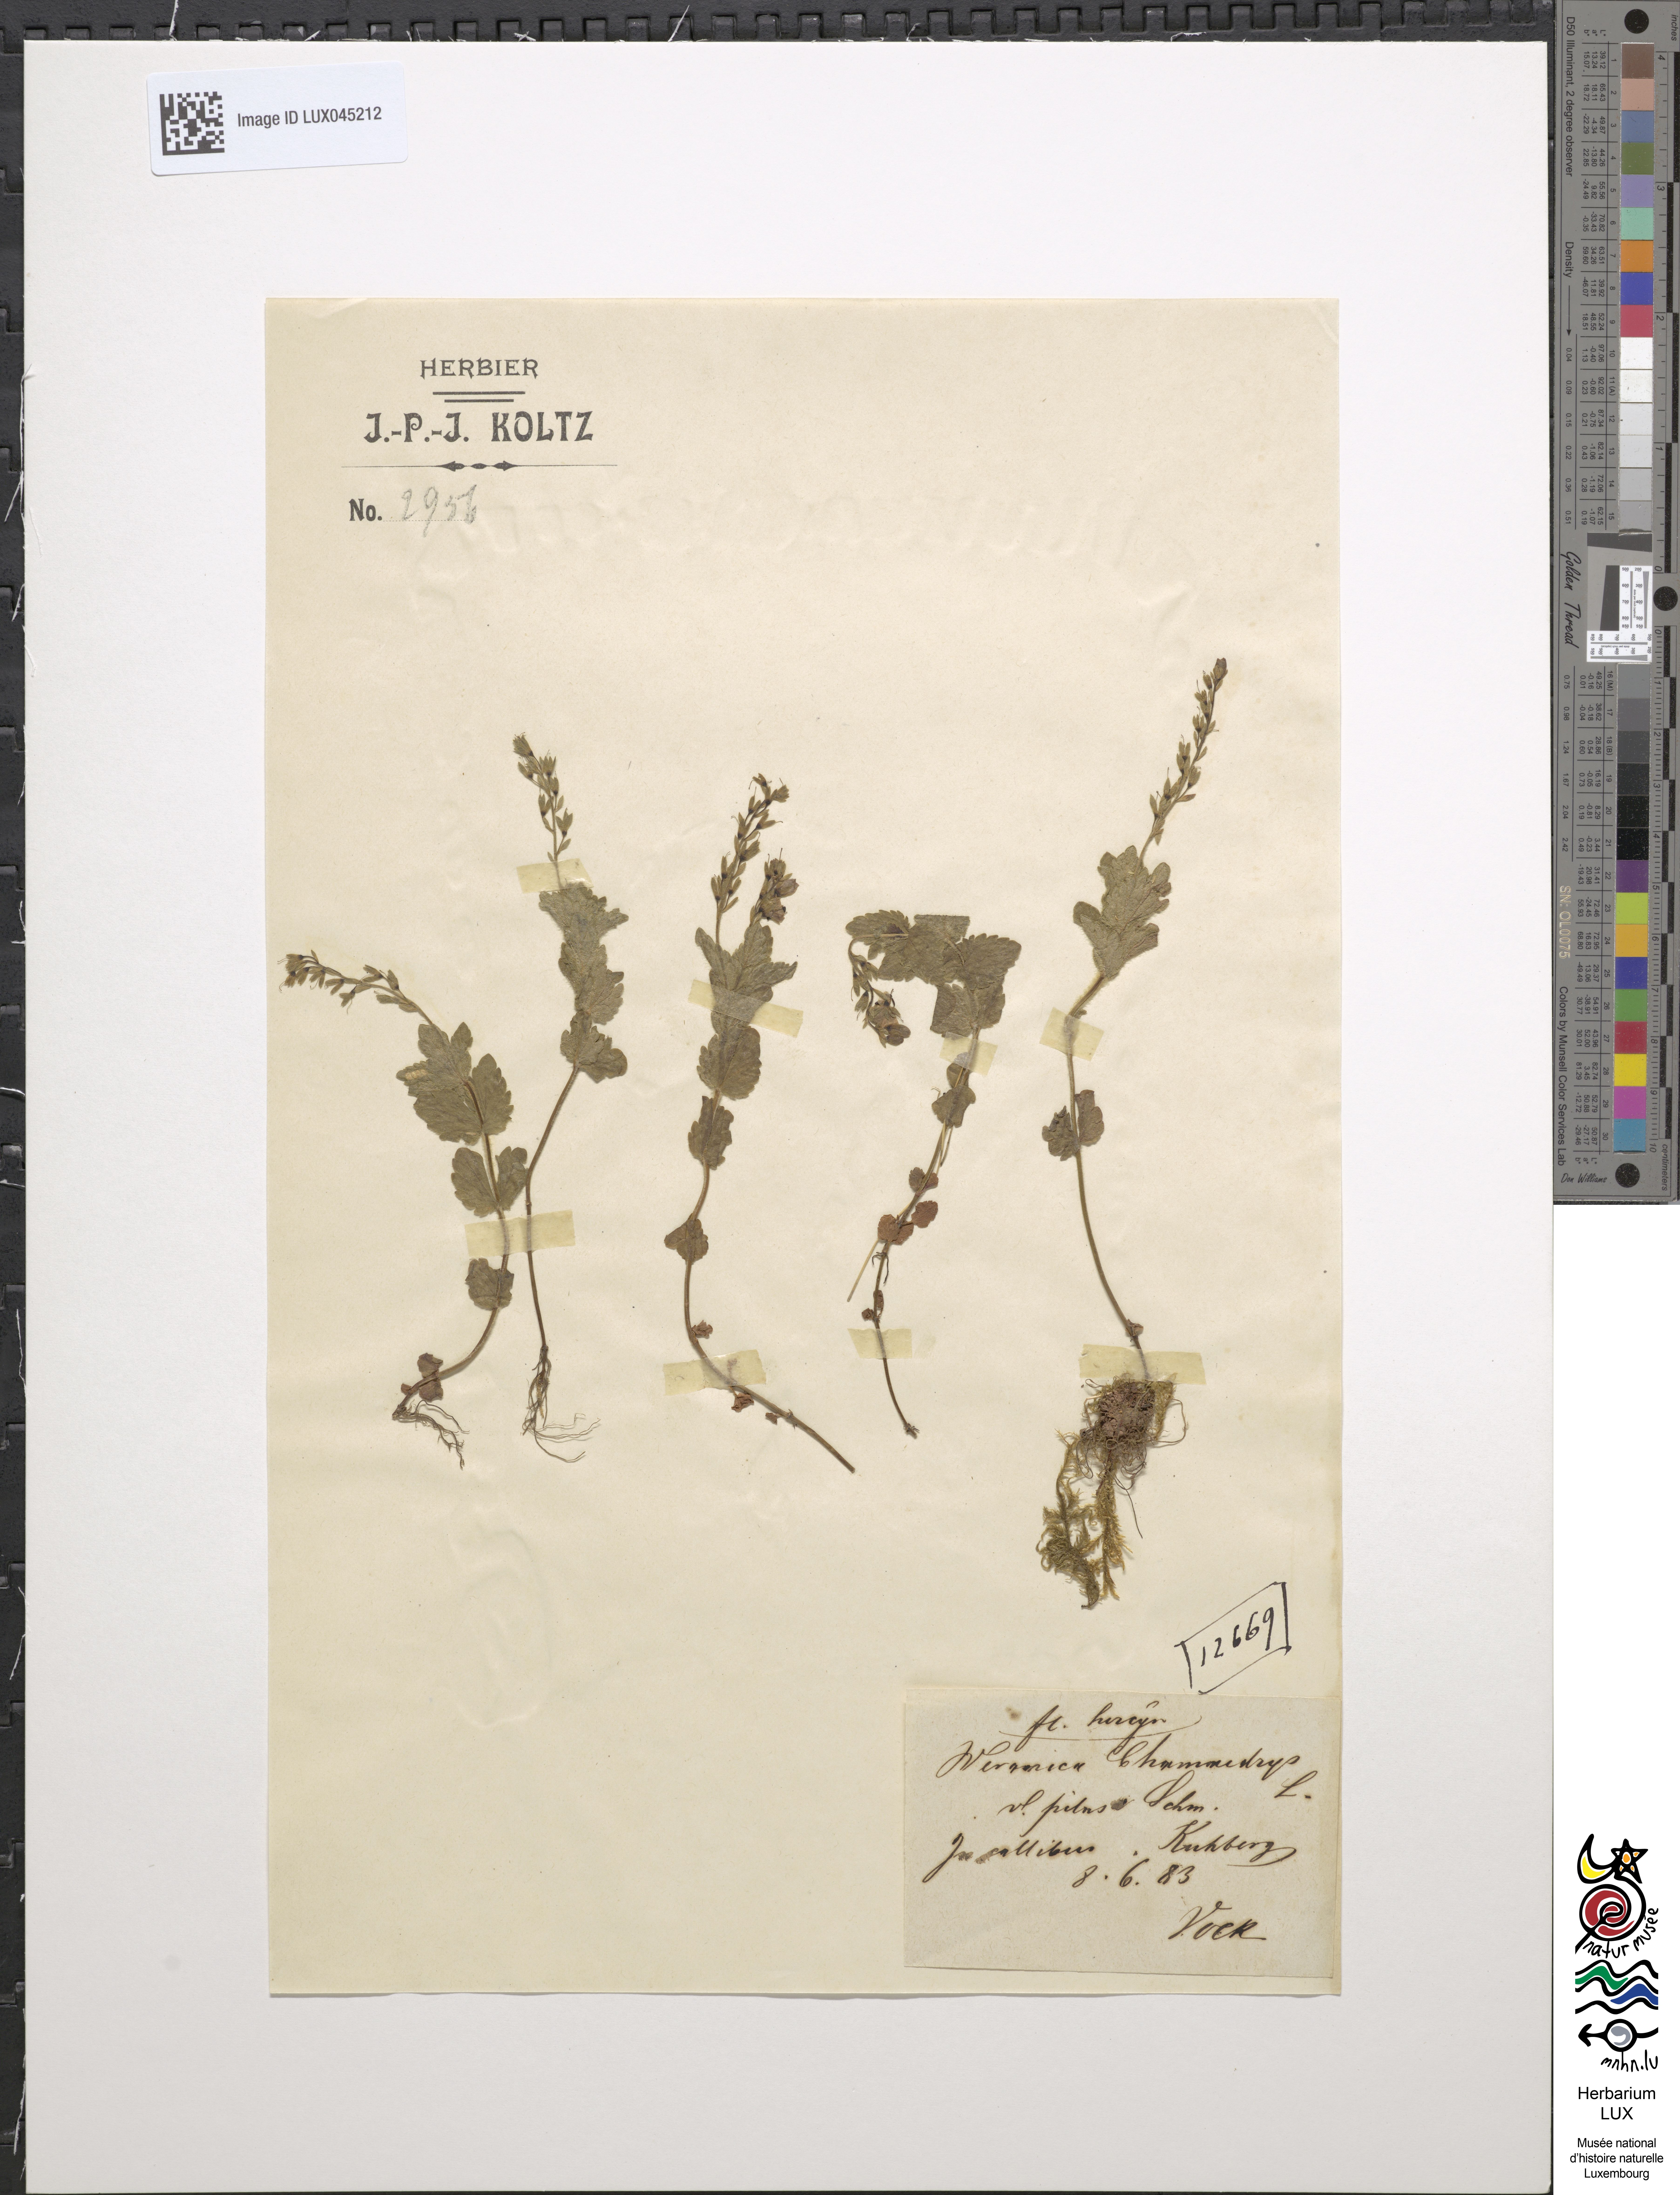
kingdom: Plantae
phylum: Tracheophyta
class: Magnoliopsida
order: Lamiales
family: Plantaginaceae
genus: Veronica
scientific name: Veronica chamaedrys
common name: Germander speedwell
